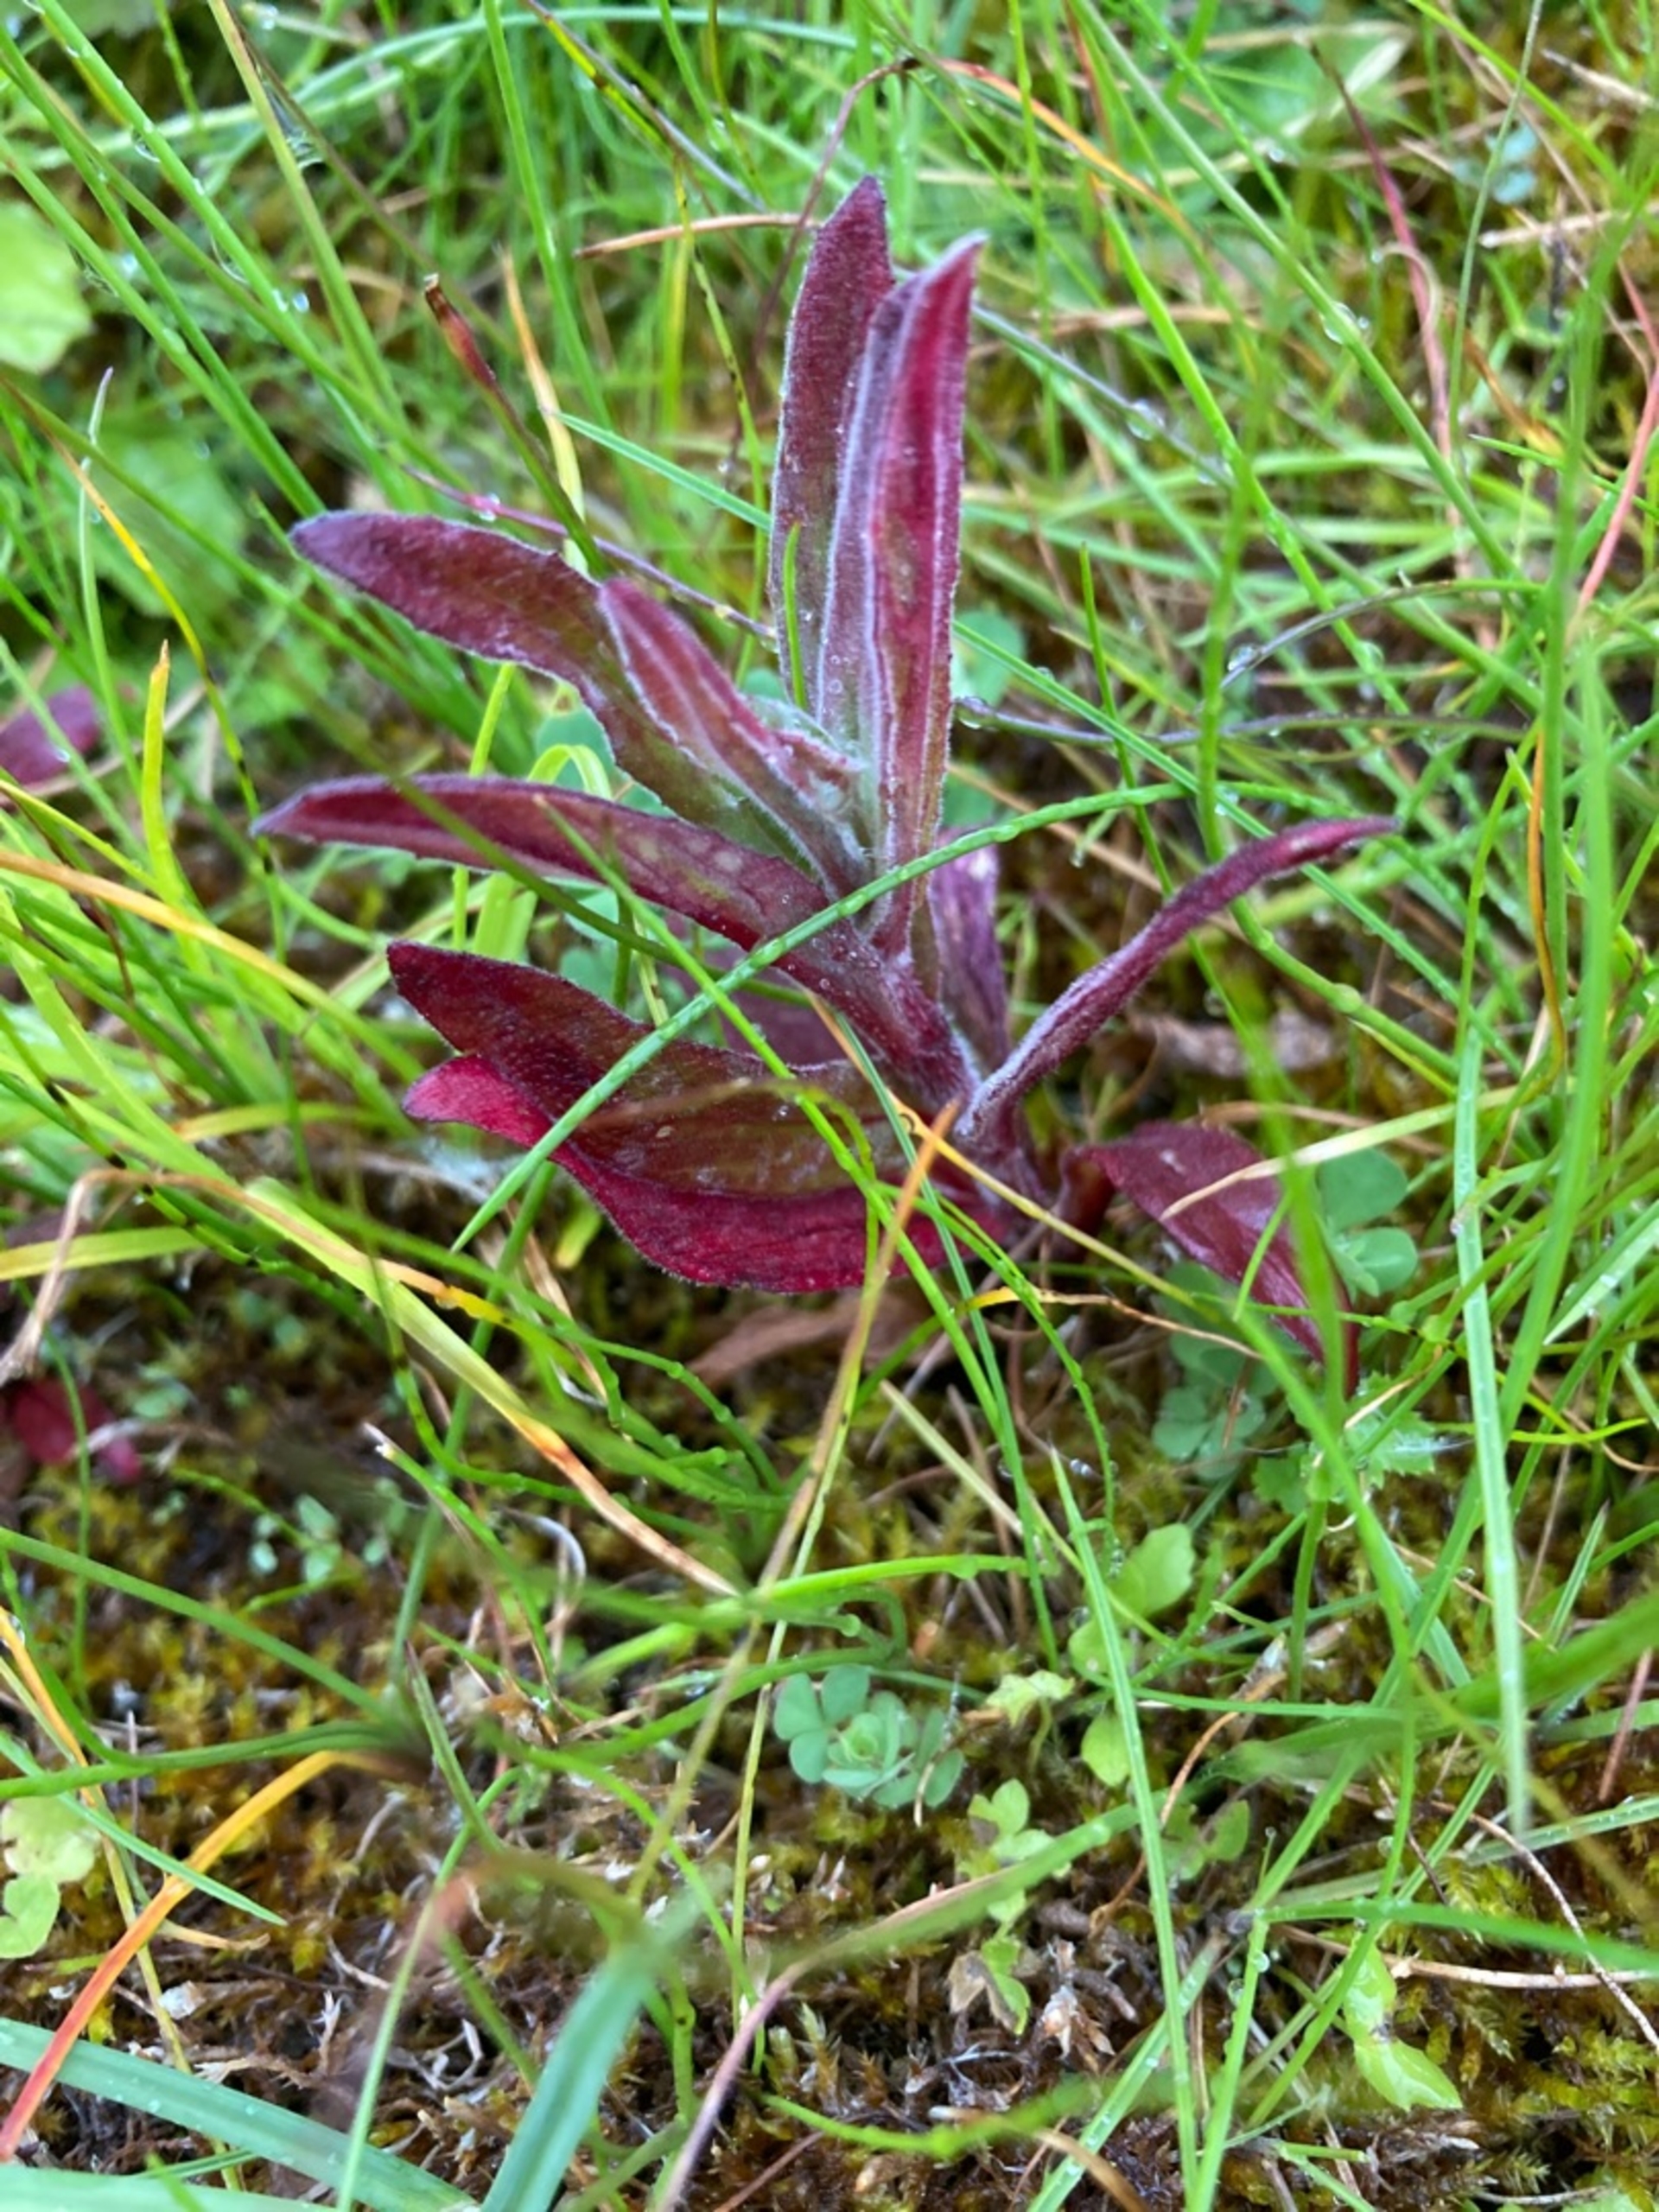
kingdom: Plantae
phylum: Tracheophyta
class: Magnoliopsida
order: Myrtales
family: Onagraceae
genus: Epilobium
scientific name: Epilobium parviflorum
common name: Dunet dueurt
